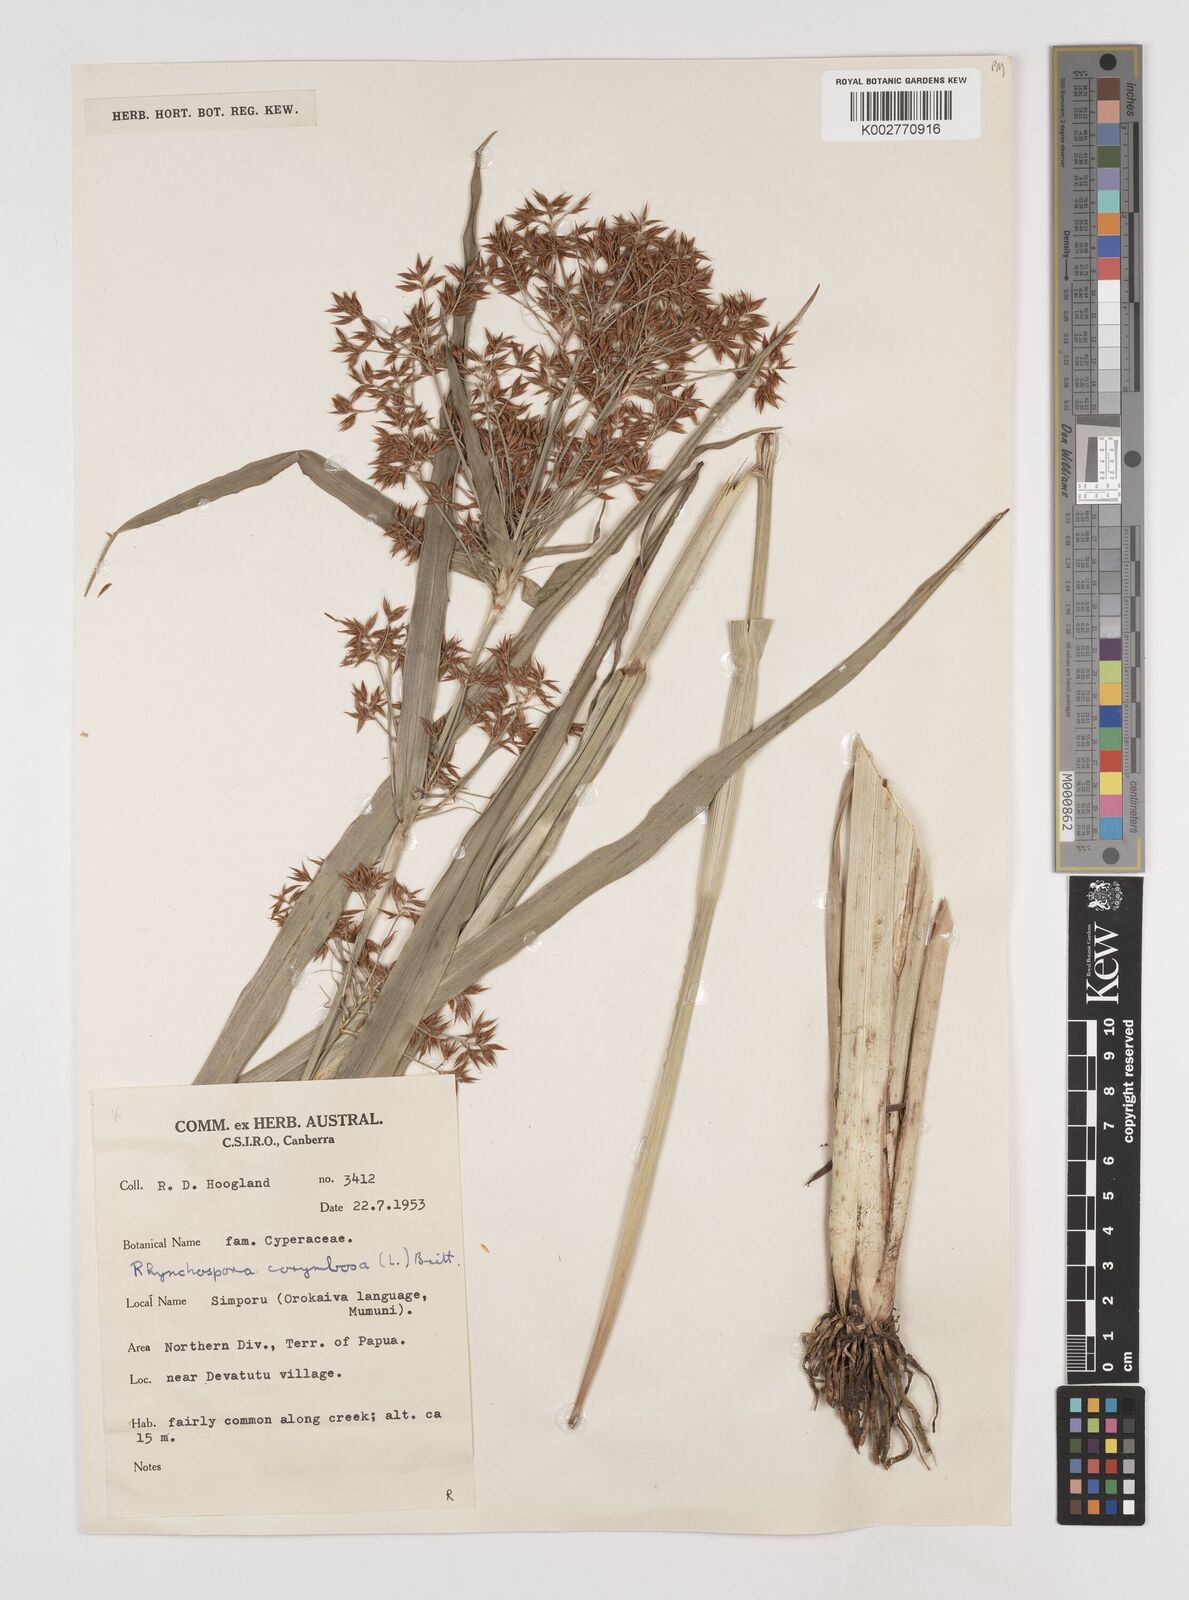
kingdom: Plantae
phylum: Tracheophyta
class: Liliopsida
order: Poales
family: Cyperaceae
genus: Rhynchospora
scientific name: Rhynchospora corymbosa
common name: Golden beak sedge
